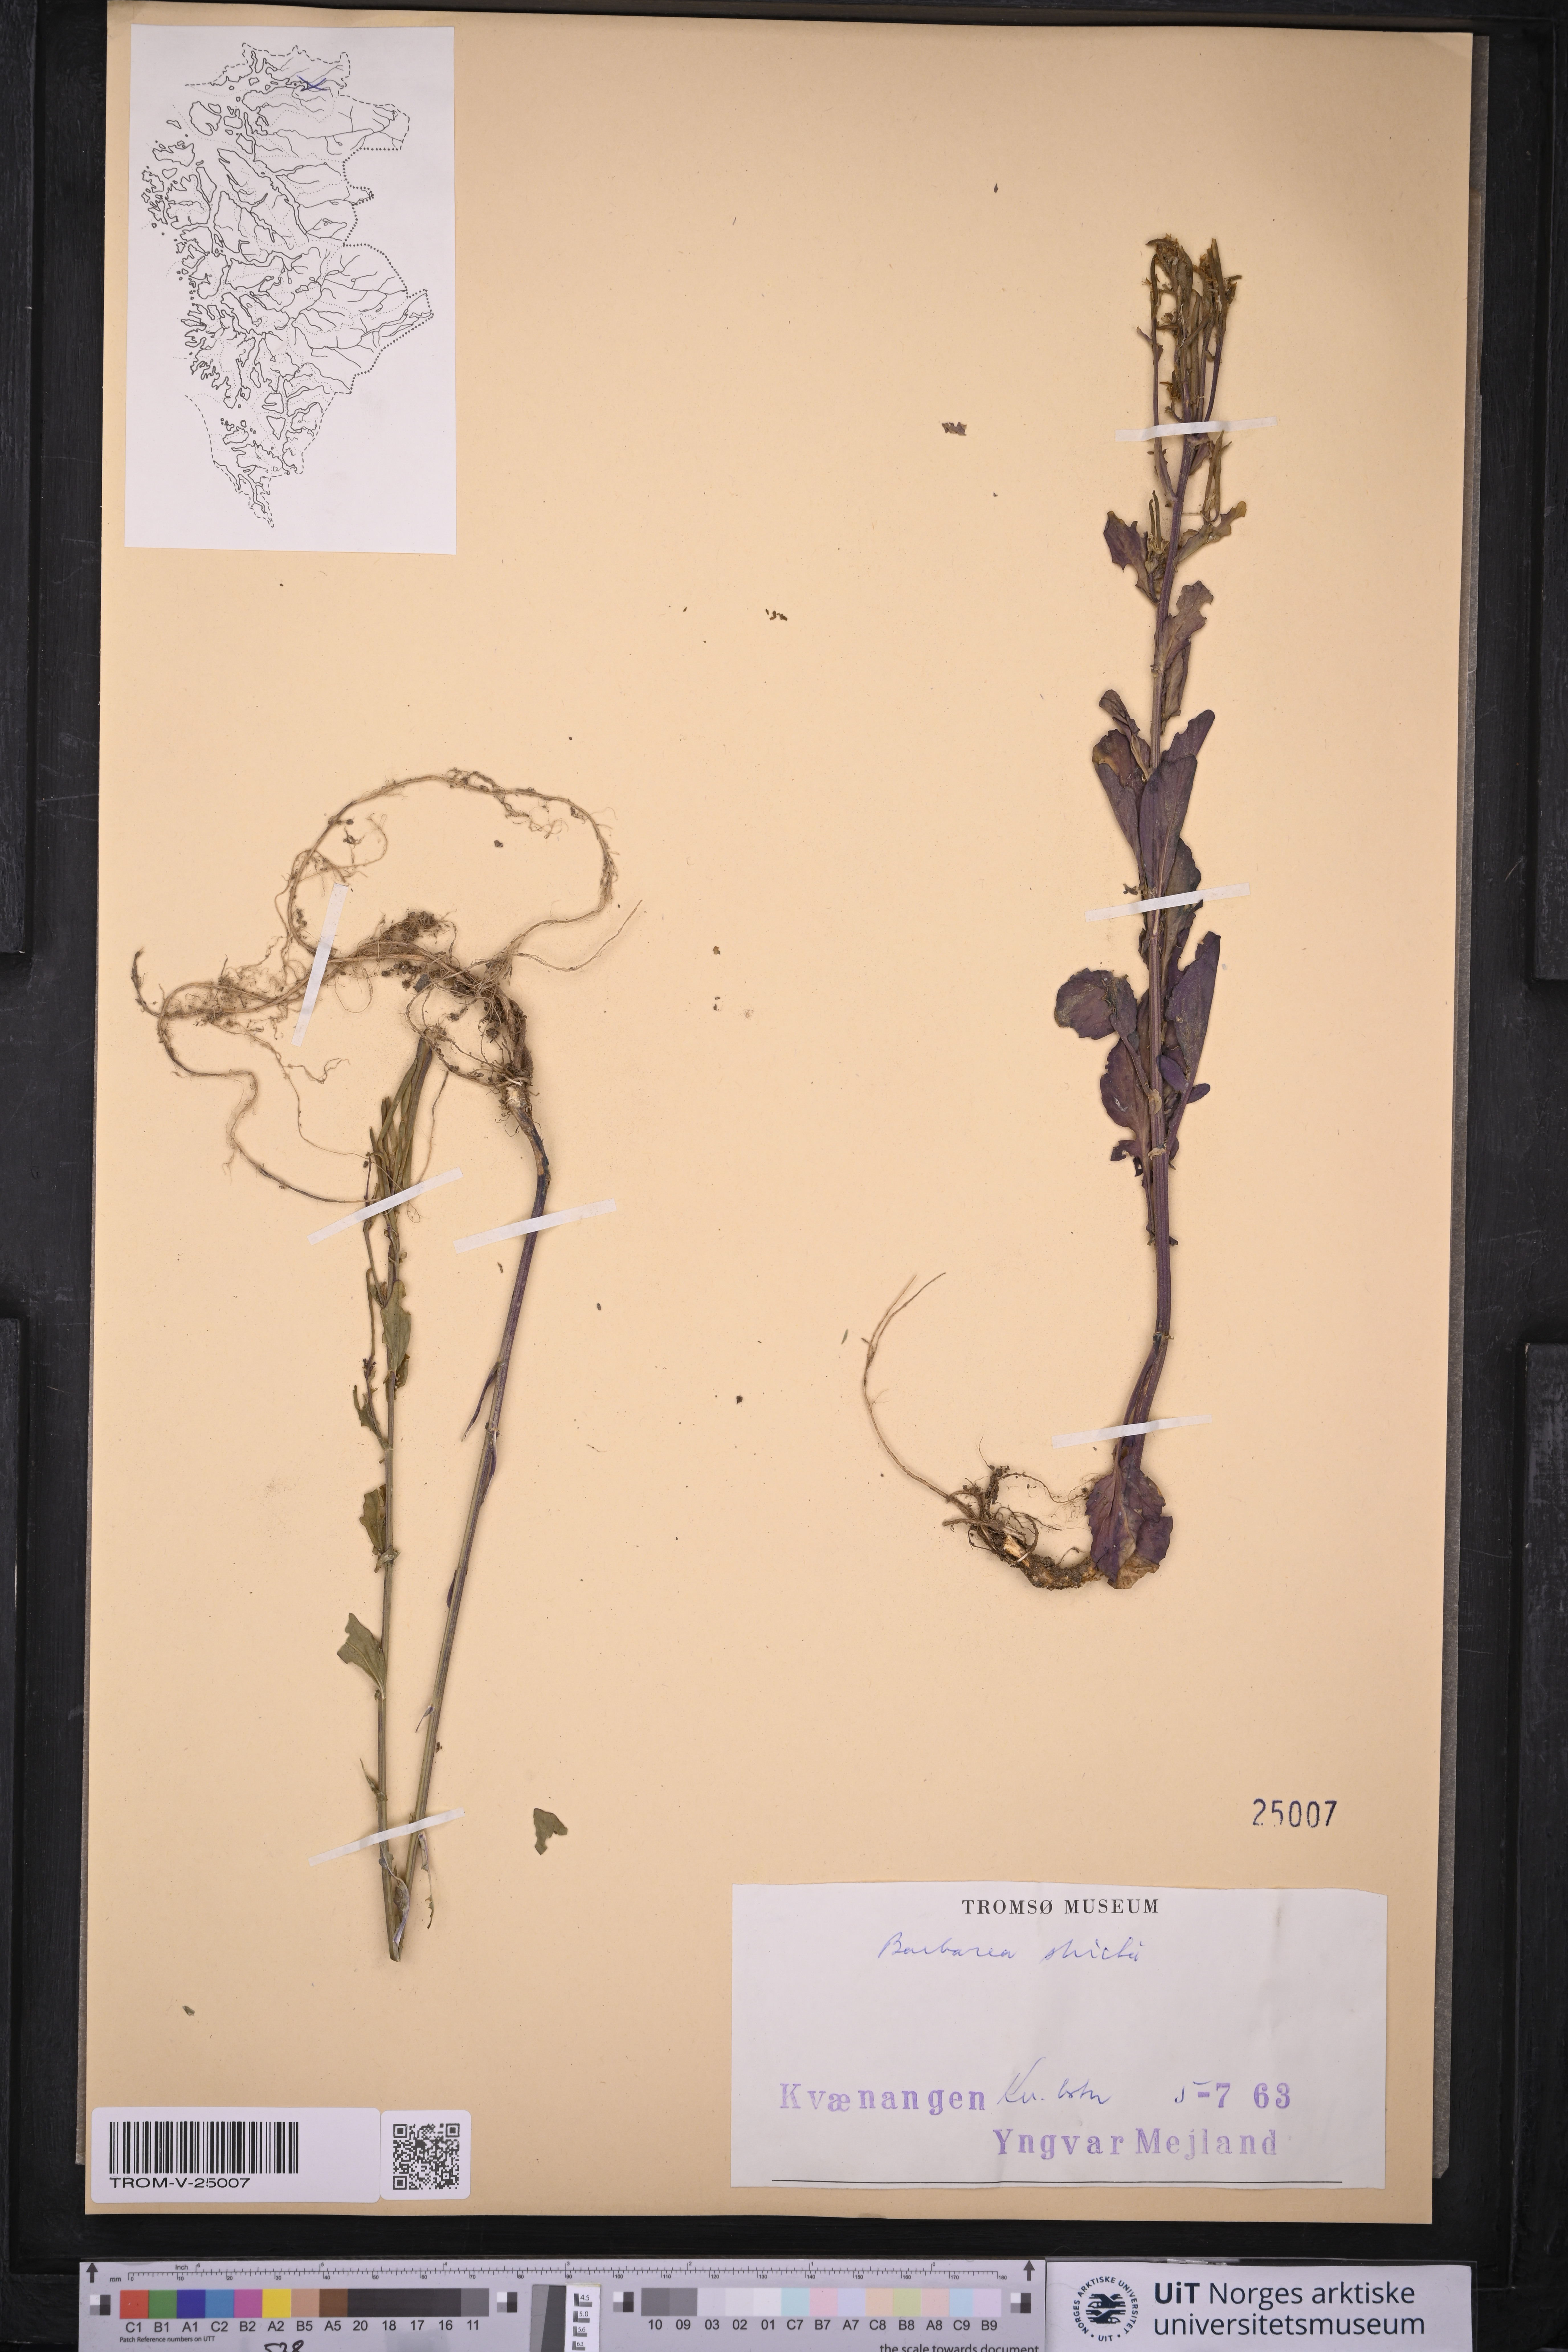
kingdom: Plantae
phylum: Tracheophyta
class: Magnoliopsida
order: Brassicales
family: Brassicaceae
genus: Barbarea
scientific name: Barbarea stricta
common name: Small-flowered winter-cress
